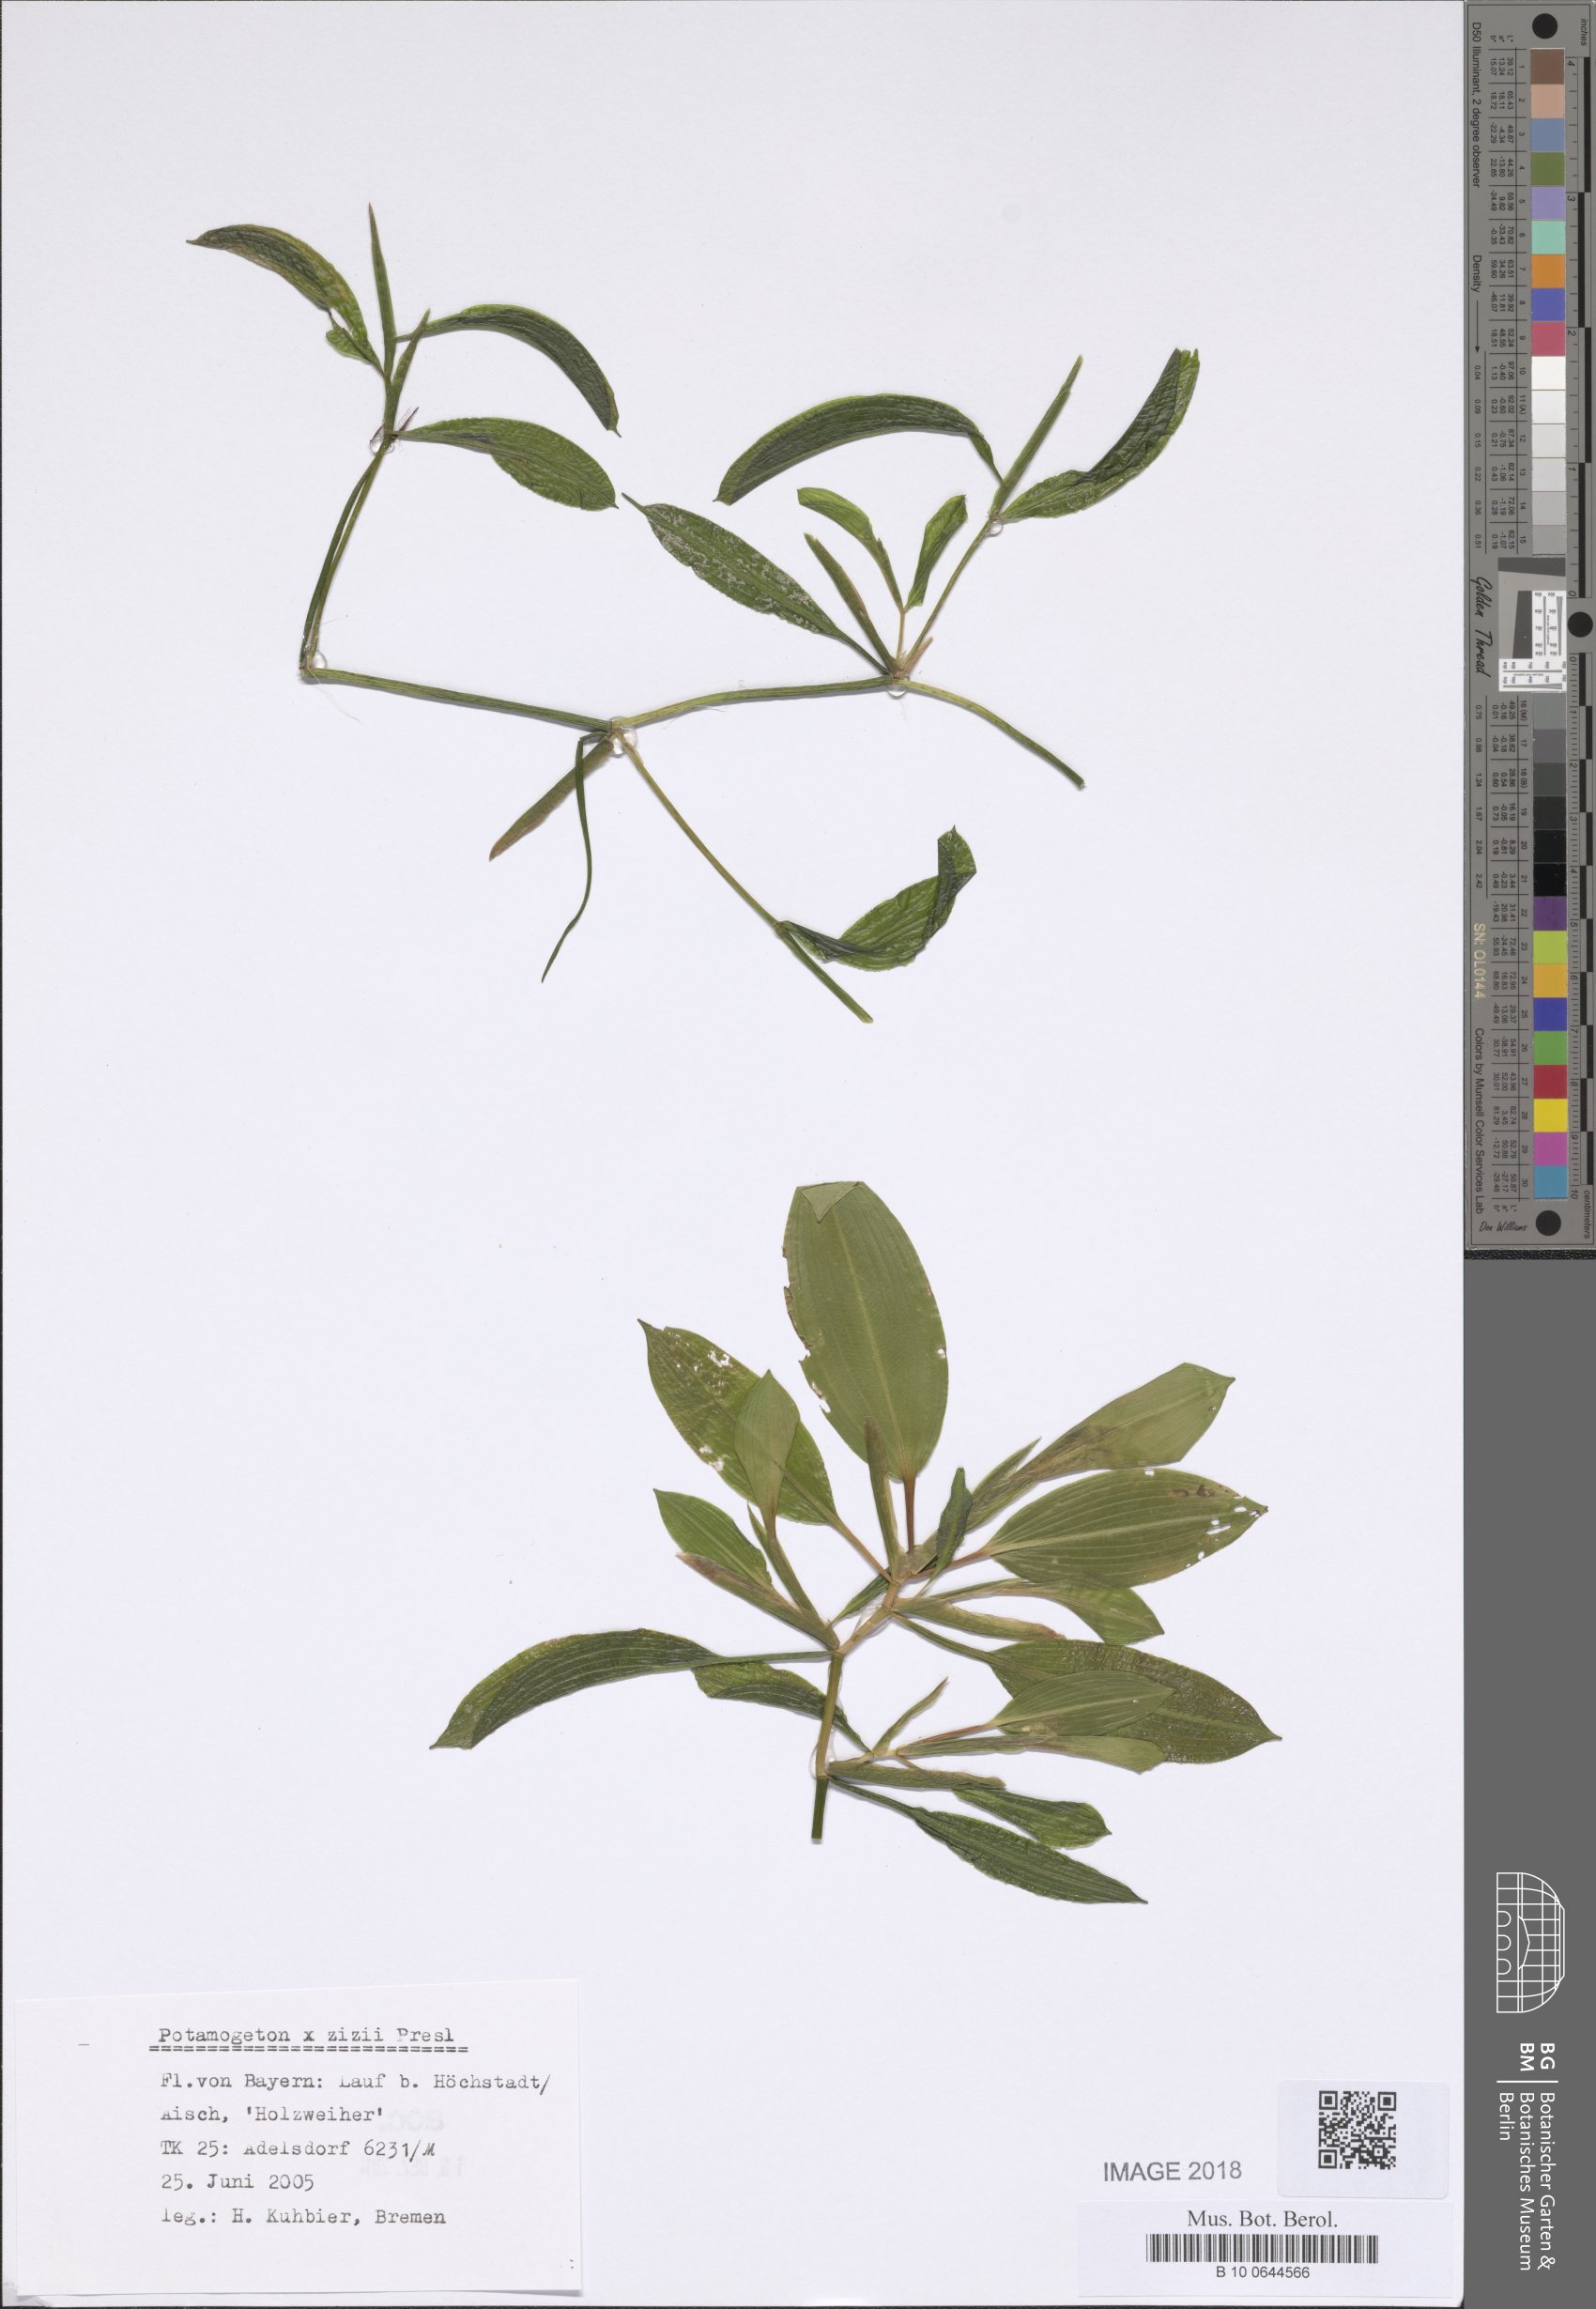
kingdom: Plantae
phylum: Tracheophyta
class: Liliopsida
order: Alismatales
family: Potamogetonaceae
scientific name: Potamogetonaceae
